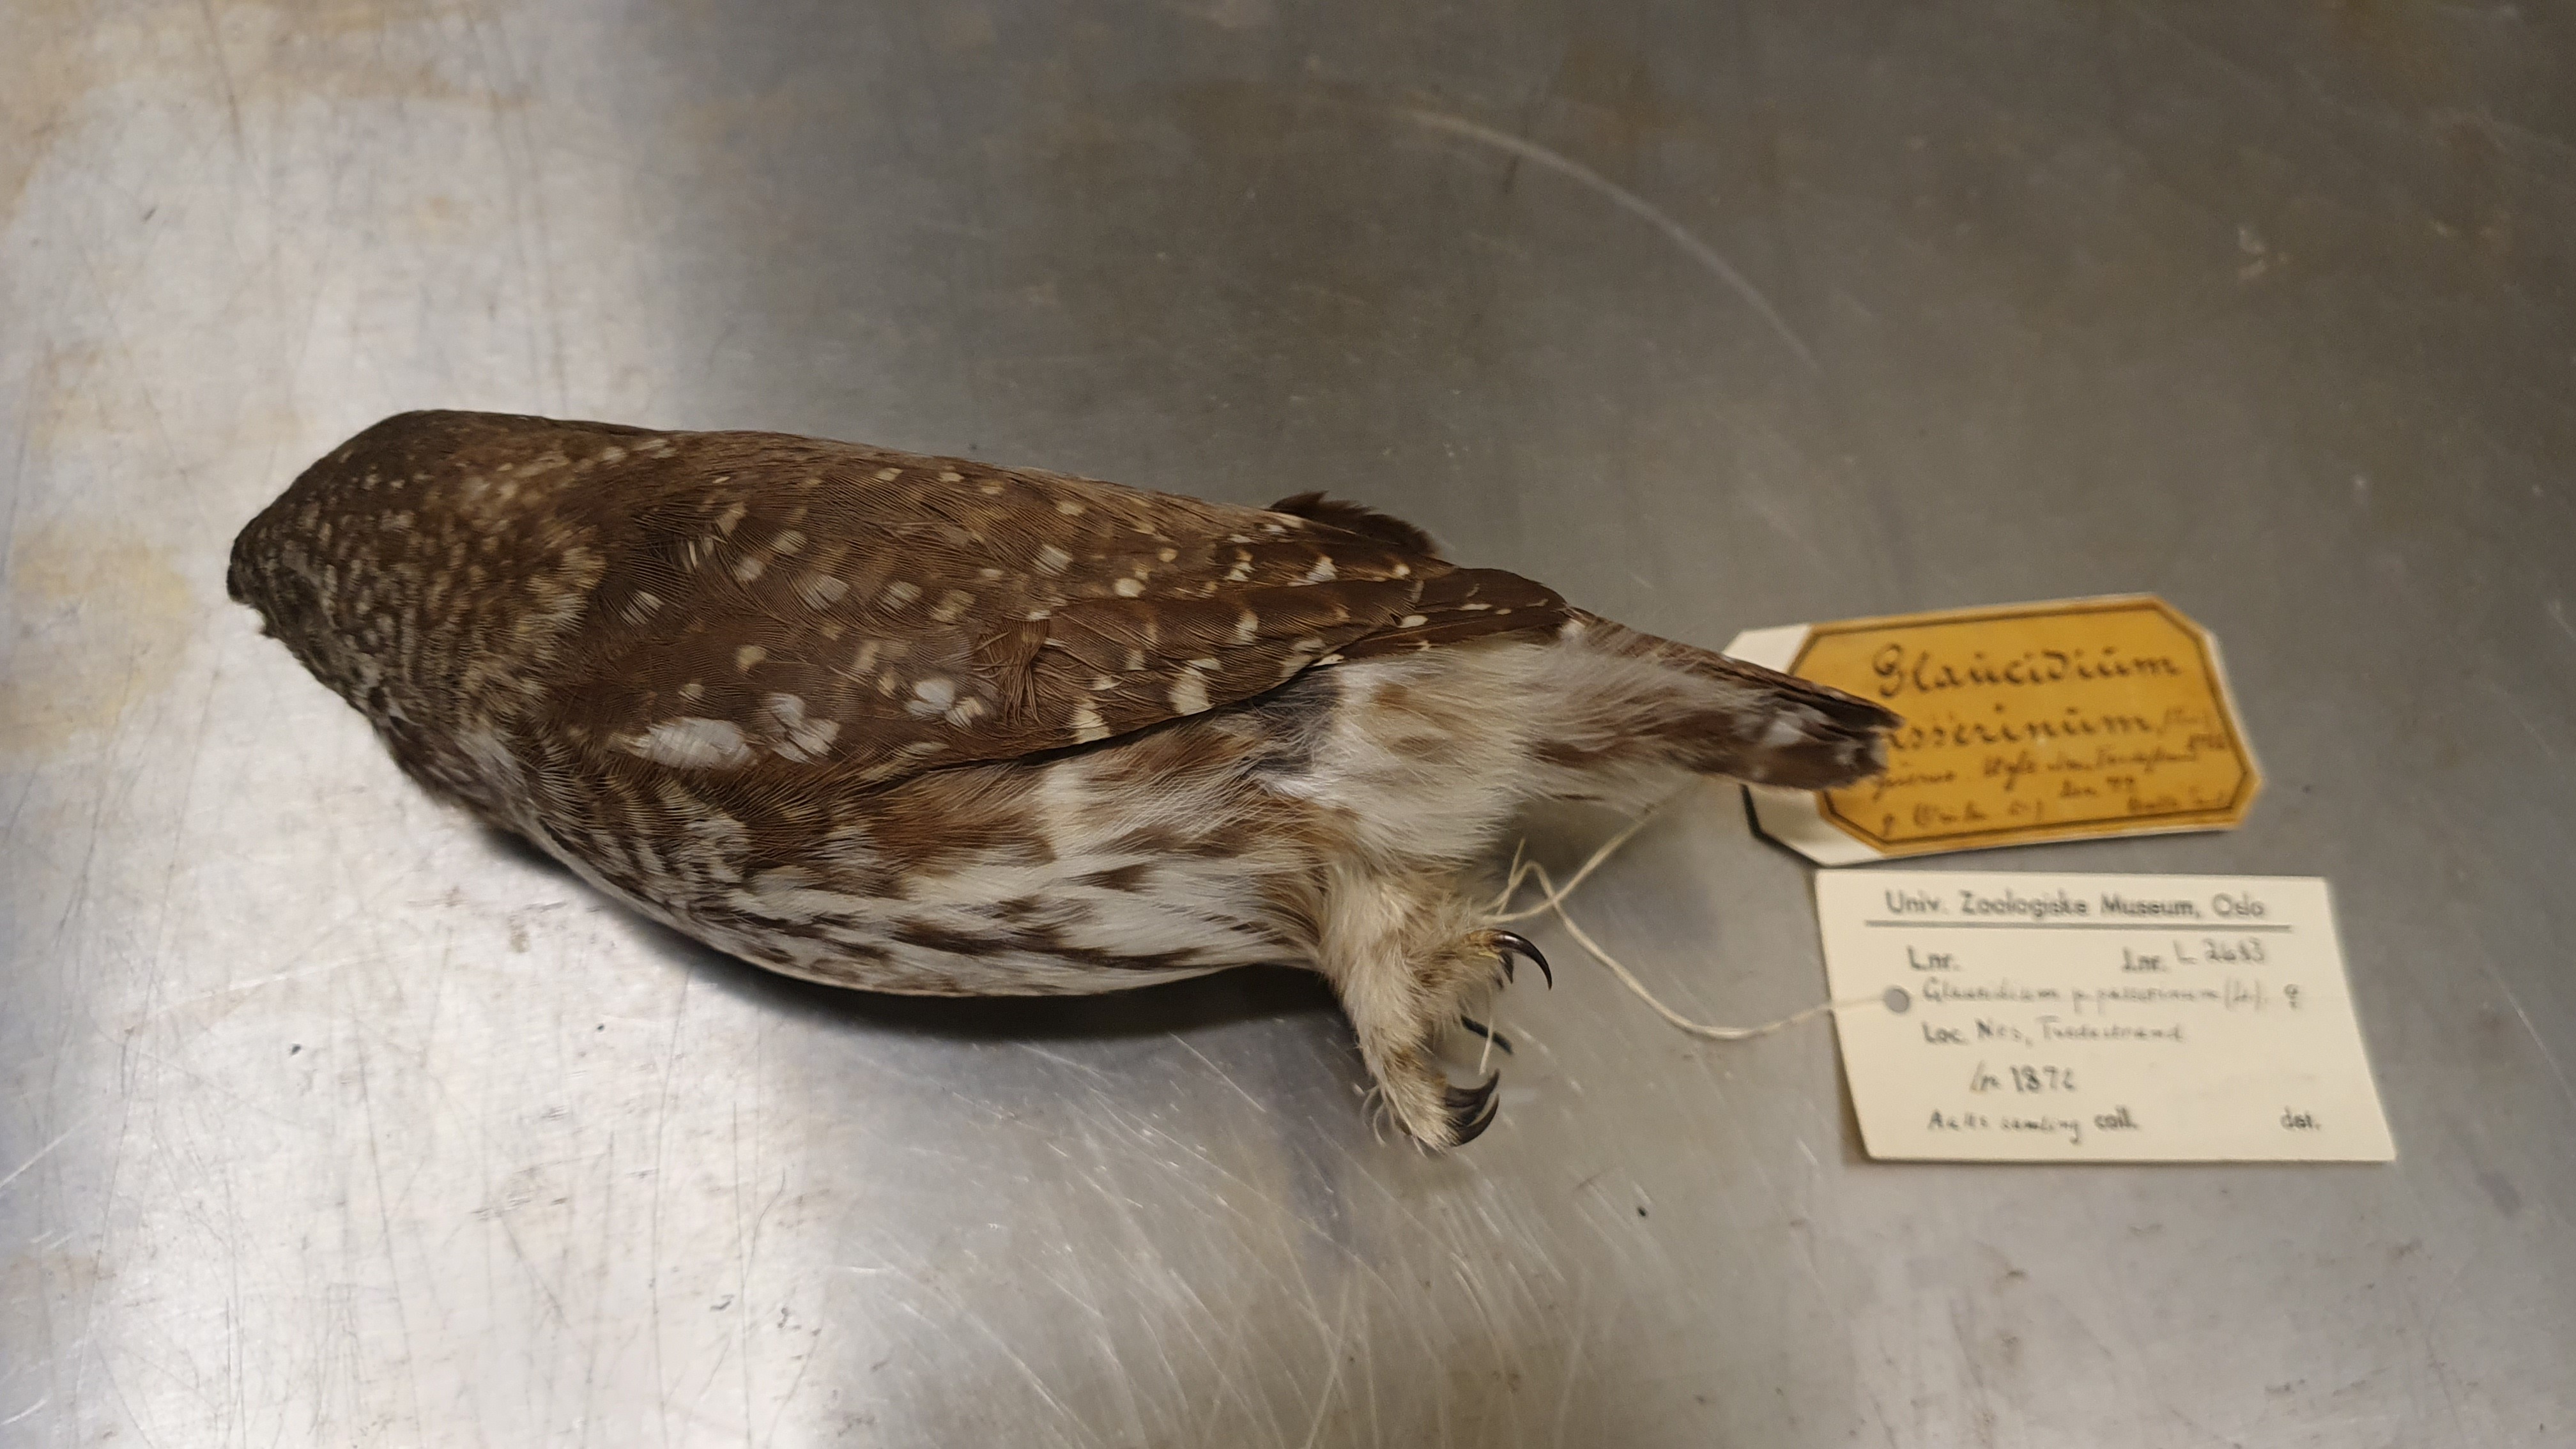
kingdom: Animalia
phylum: Chordata
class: Aves
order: Strigiformes
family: Strigidae
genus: Glaucidium
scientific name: Glaucidium passerinum
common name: Eurasian pygmy owl
